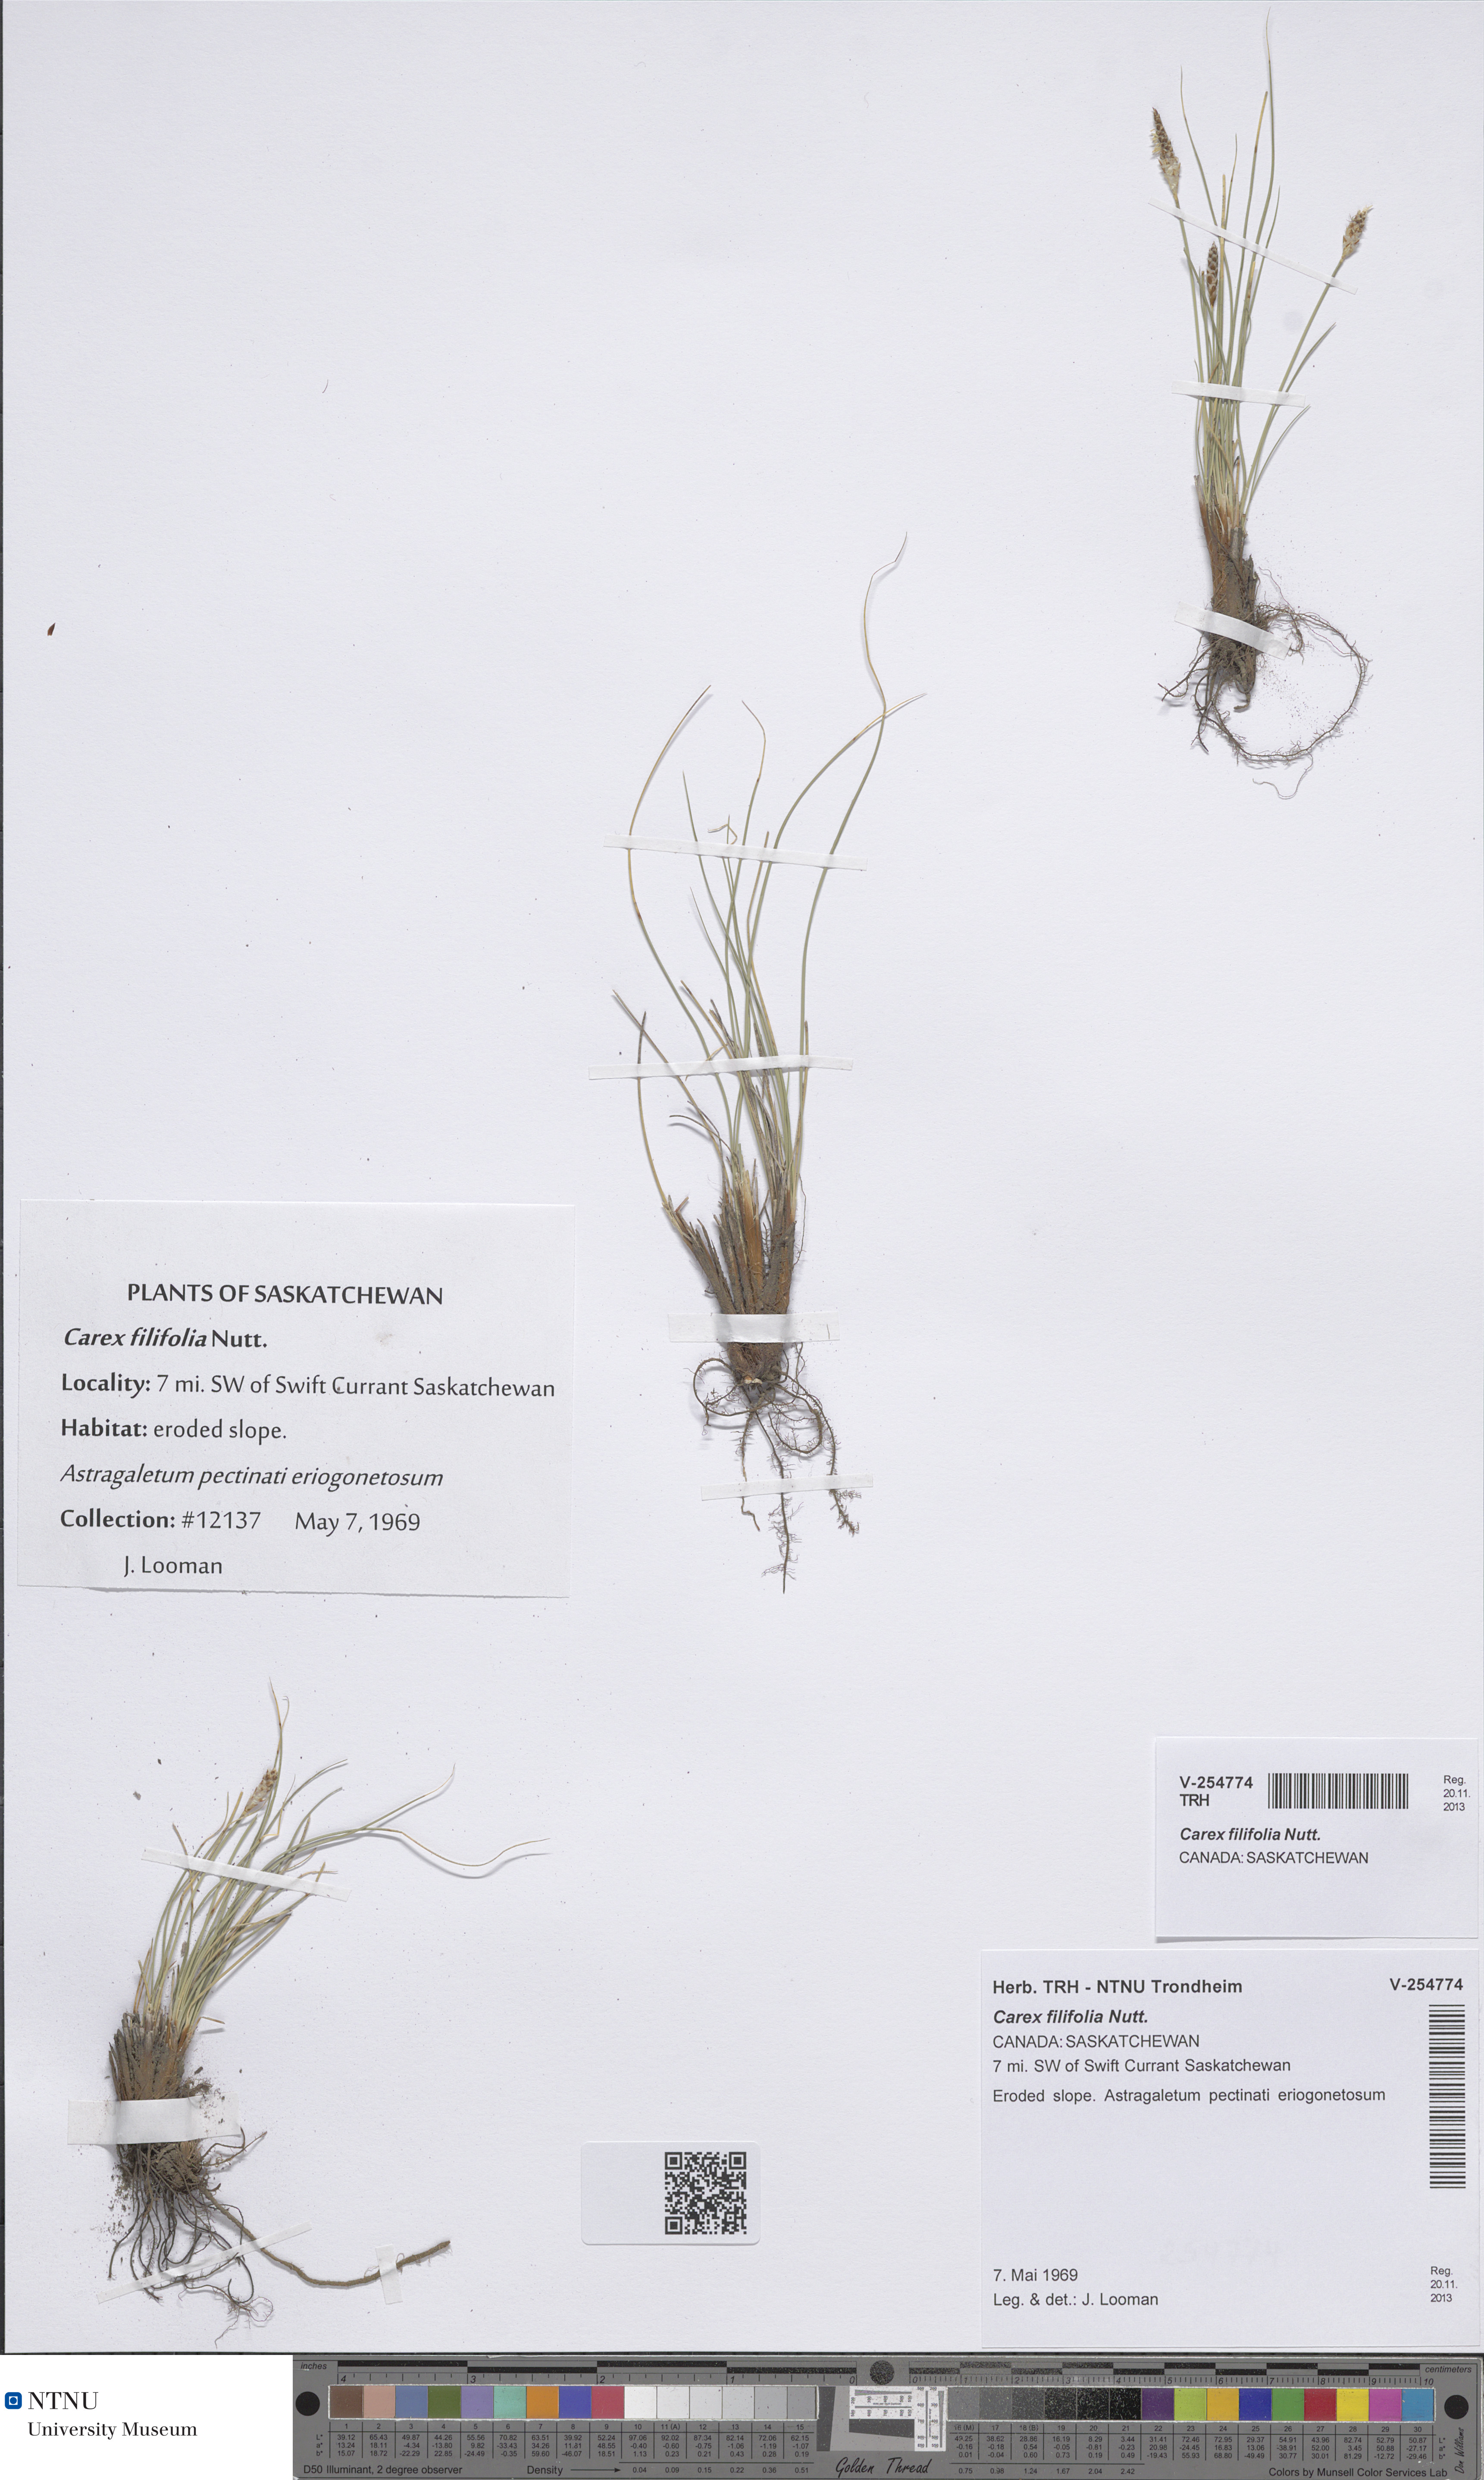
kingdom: Plantae
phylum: Tracheophyta
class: Liliopsida
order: Poales
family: Cyperaceae
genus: Carex
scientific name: Carex filifolia
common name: Threadleaf sedge
